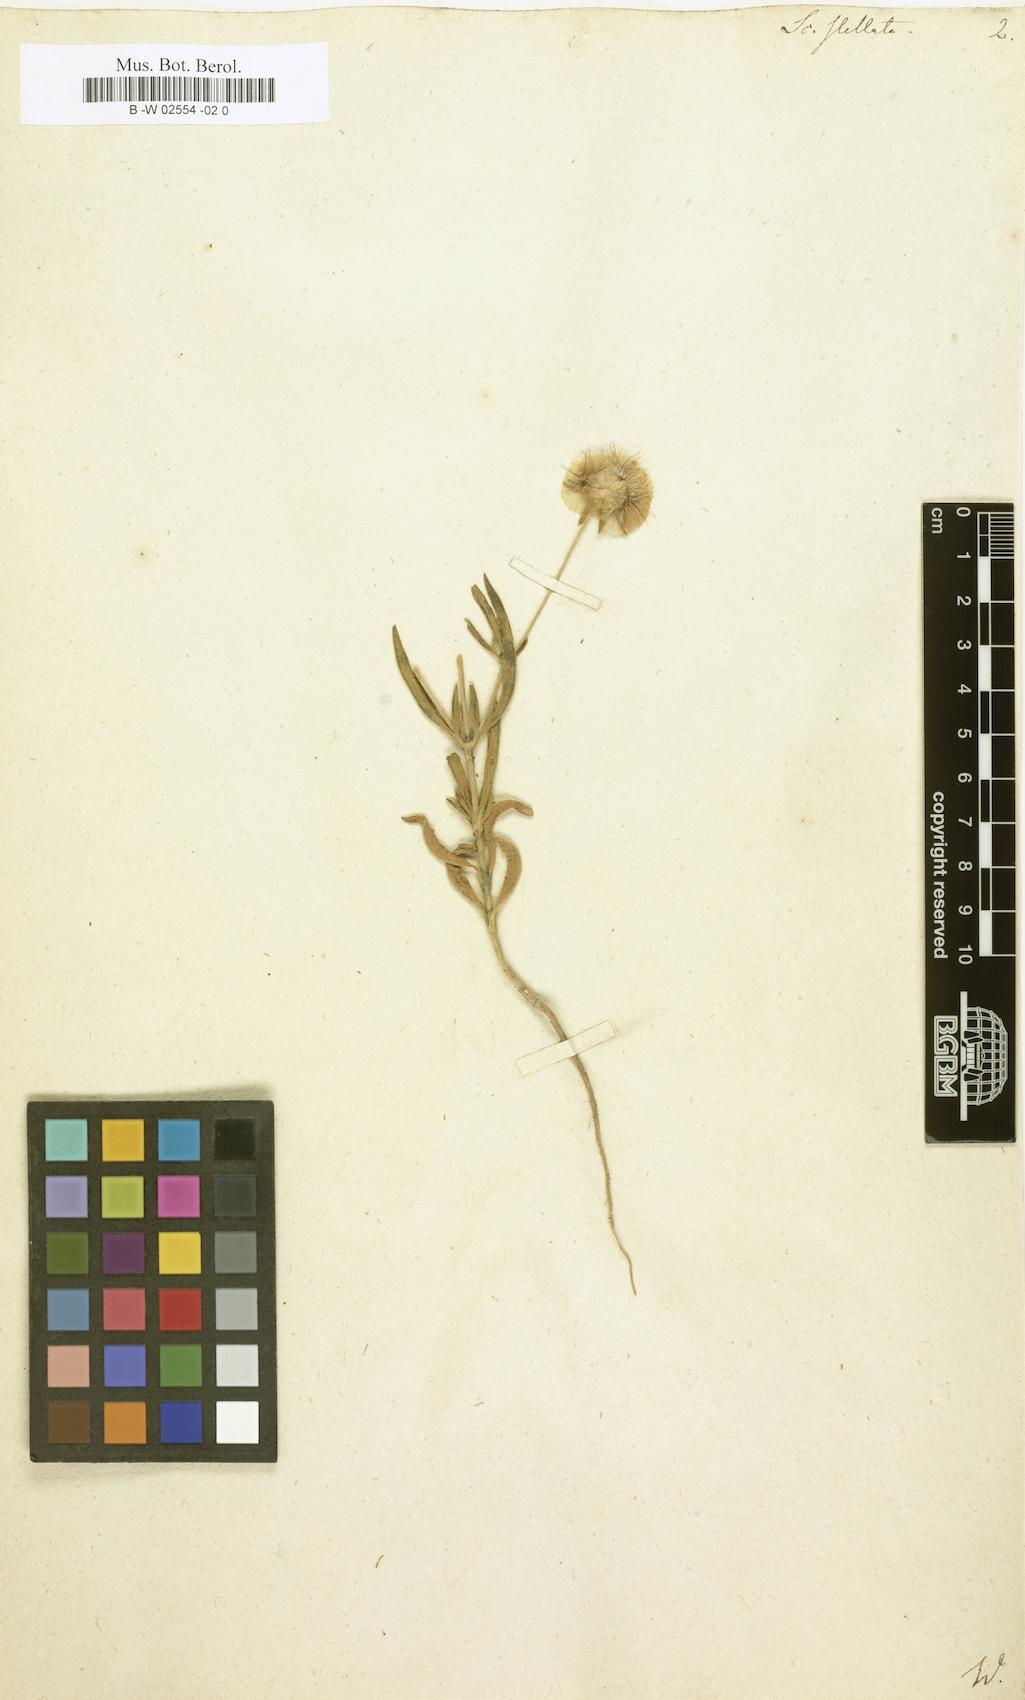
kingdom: Plantae
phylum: Tracheophyta
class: Magnoliopsida
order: Dipsacales
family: Caprifoliaceae
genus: Lomelosia
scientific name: Lomelosia stellata
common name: Teasel
